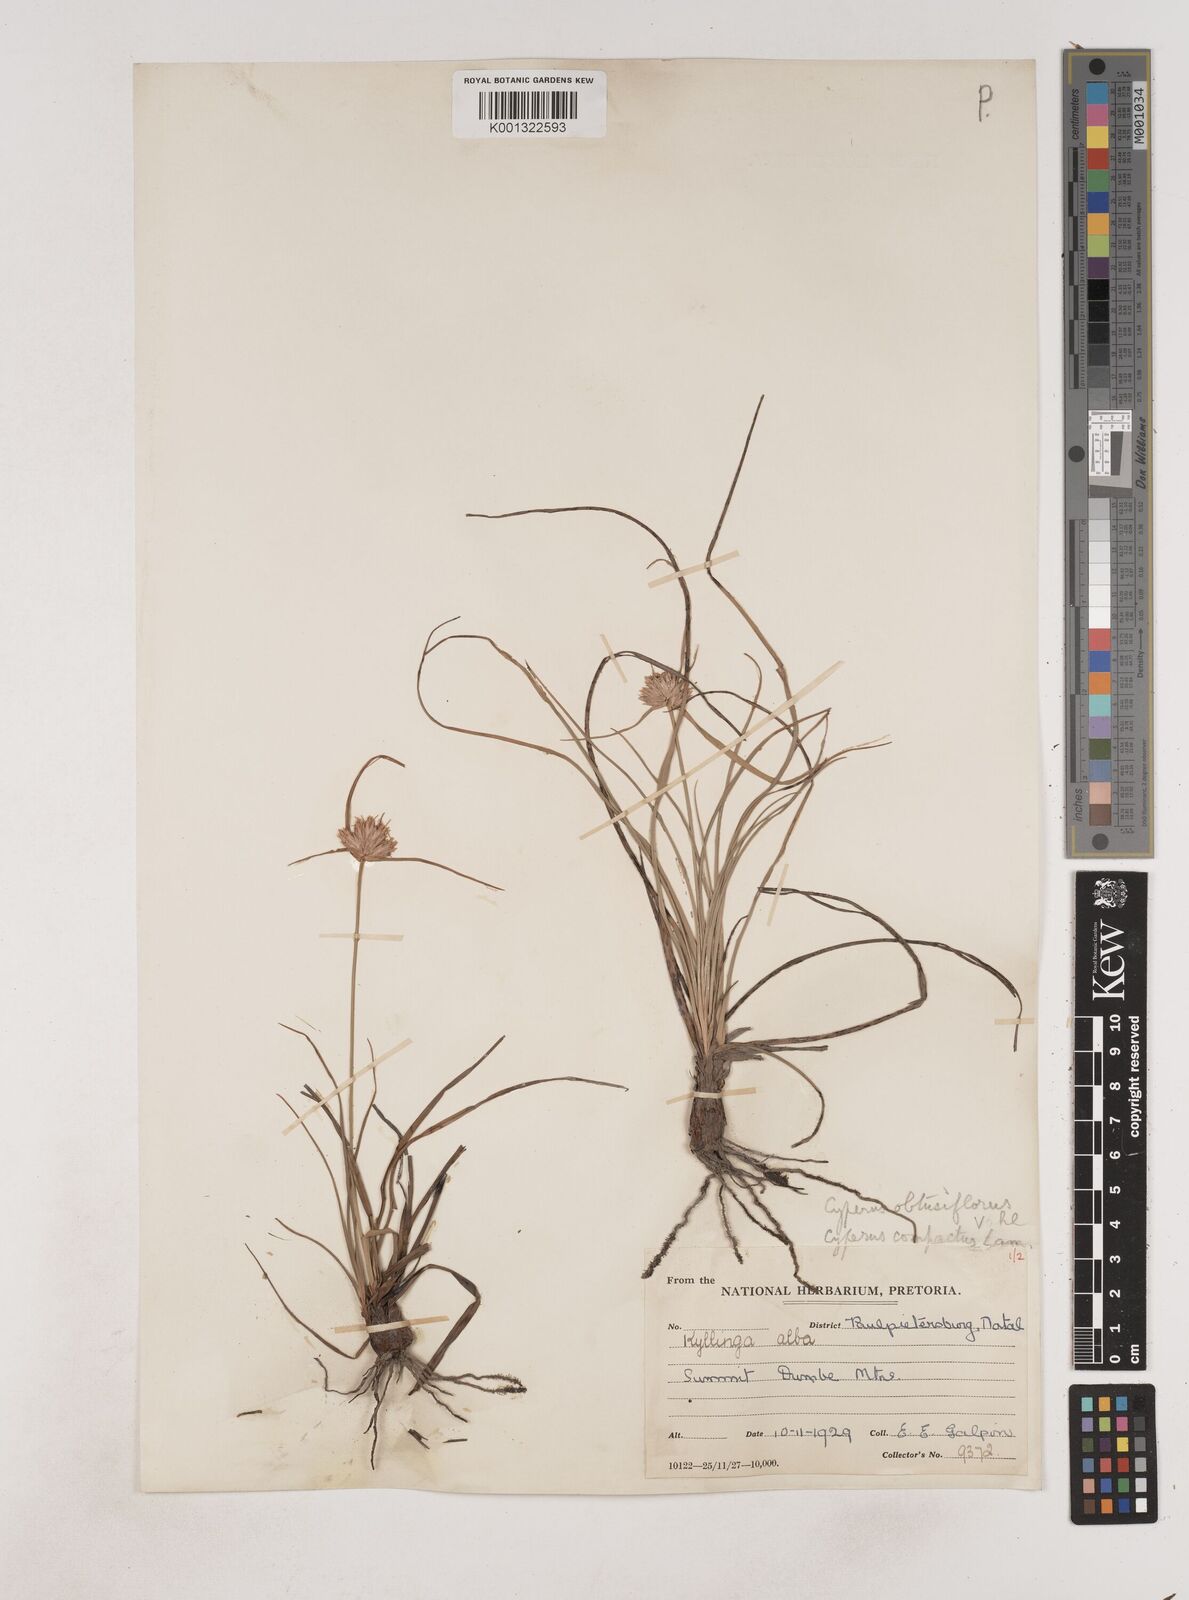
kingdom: Plantae
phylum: Tracheophyta
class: Liliopsida
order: Poales
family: Cyperaceae
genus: Cyperus
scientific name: Cyperus niveus
